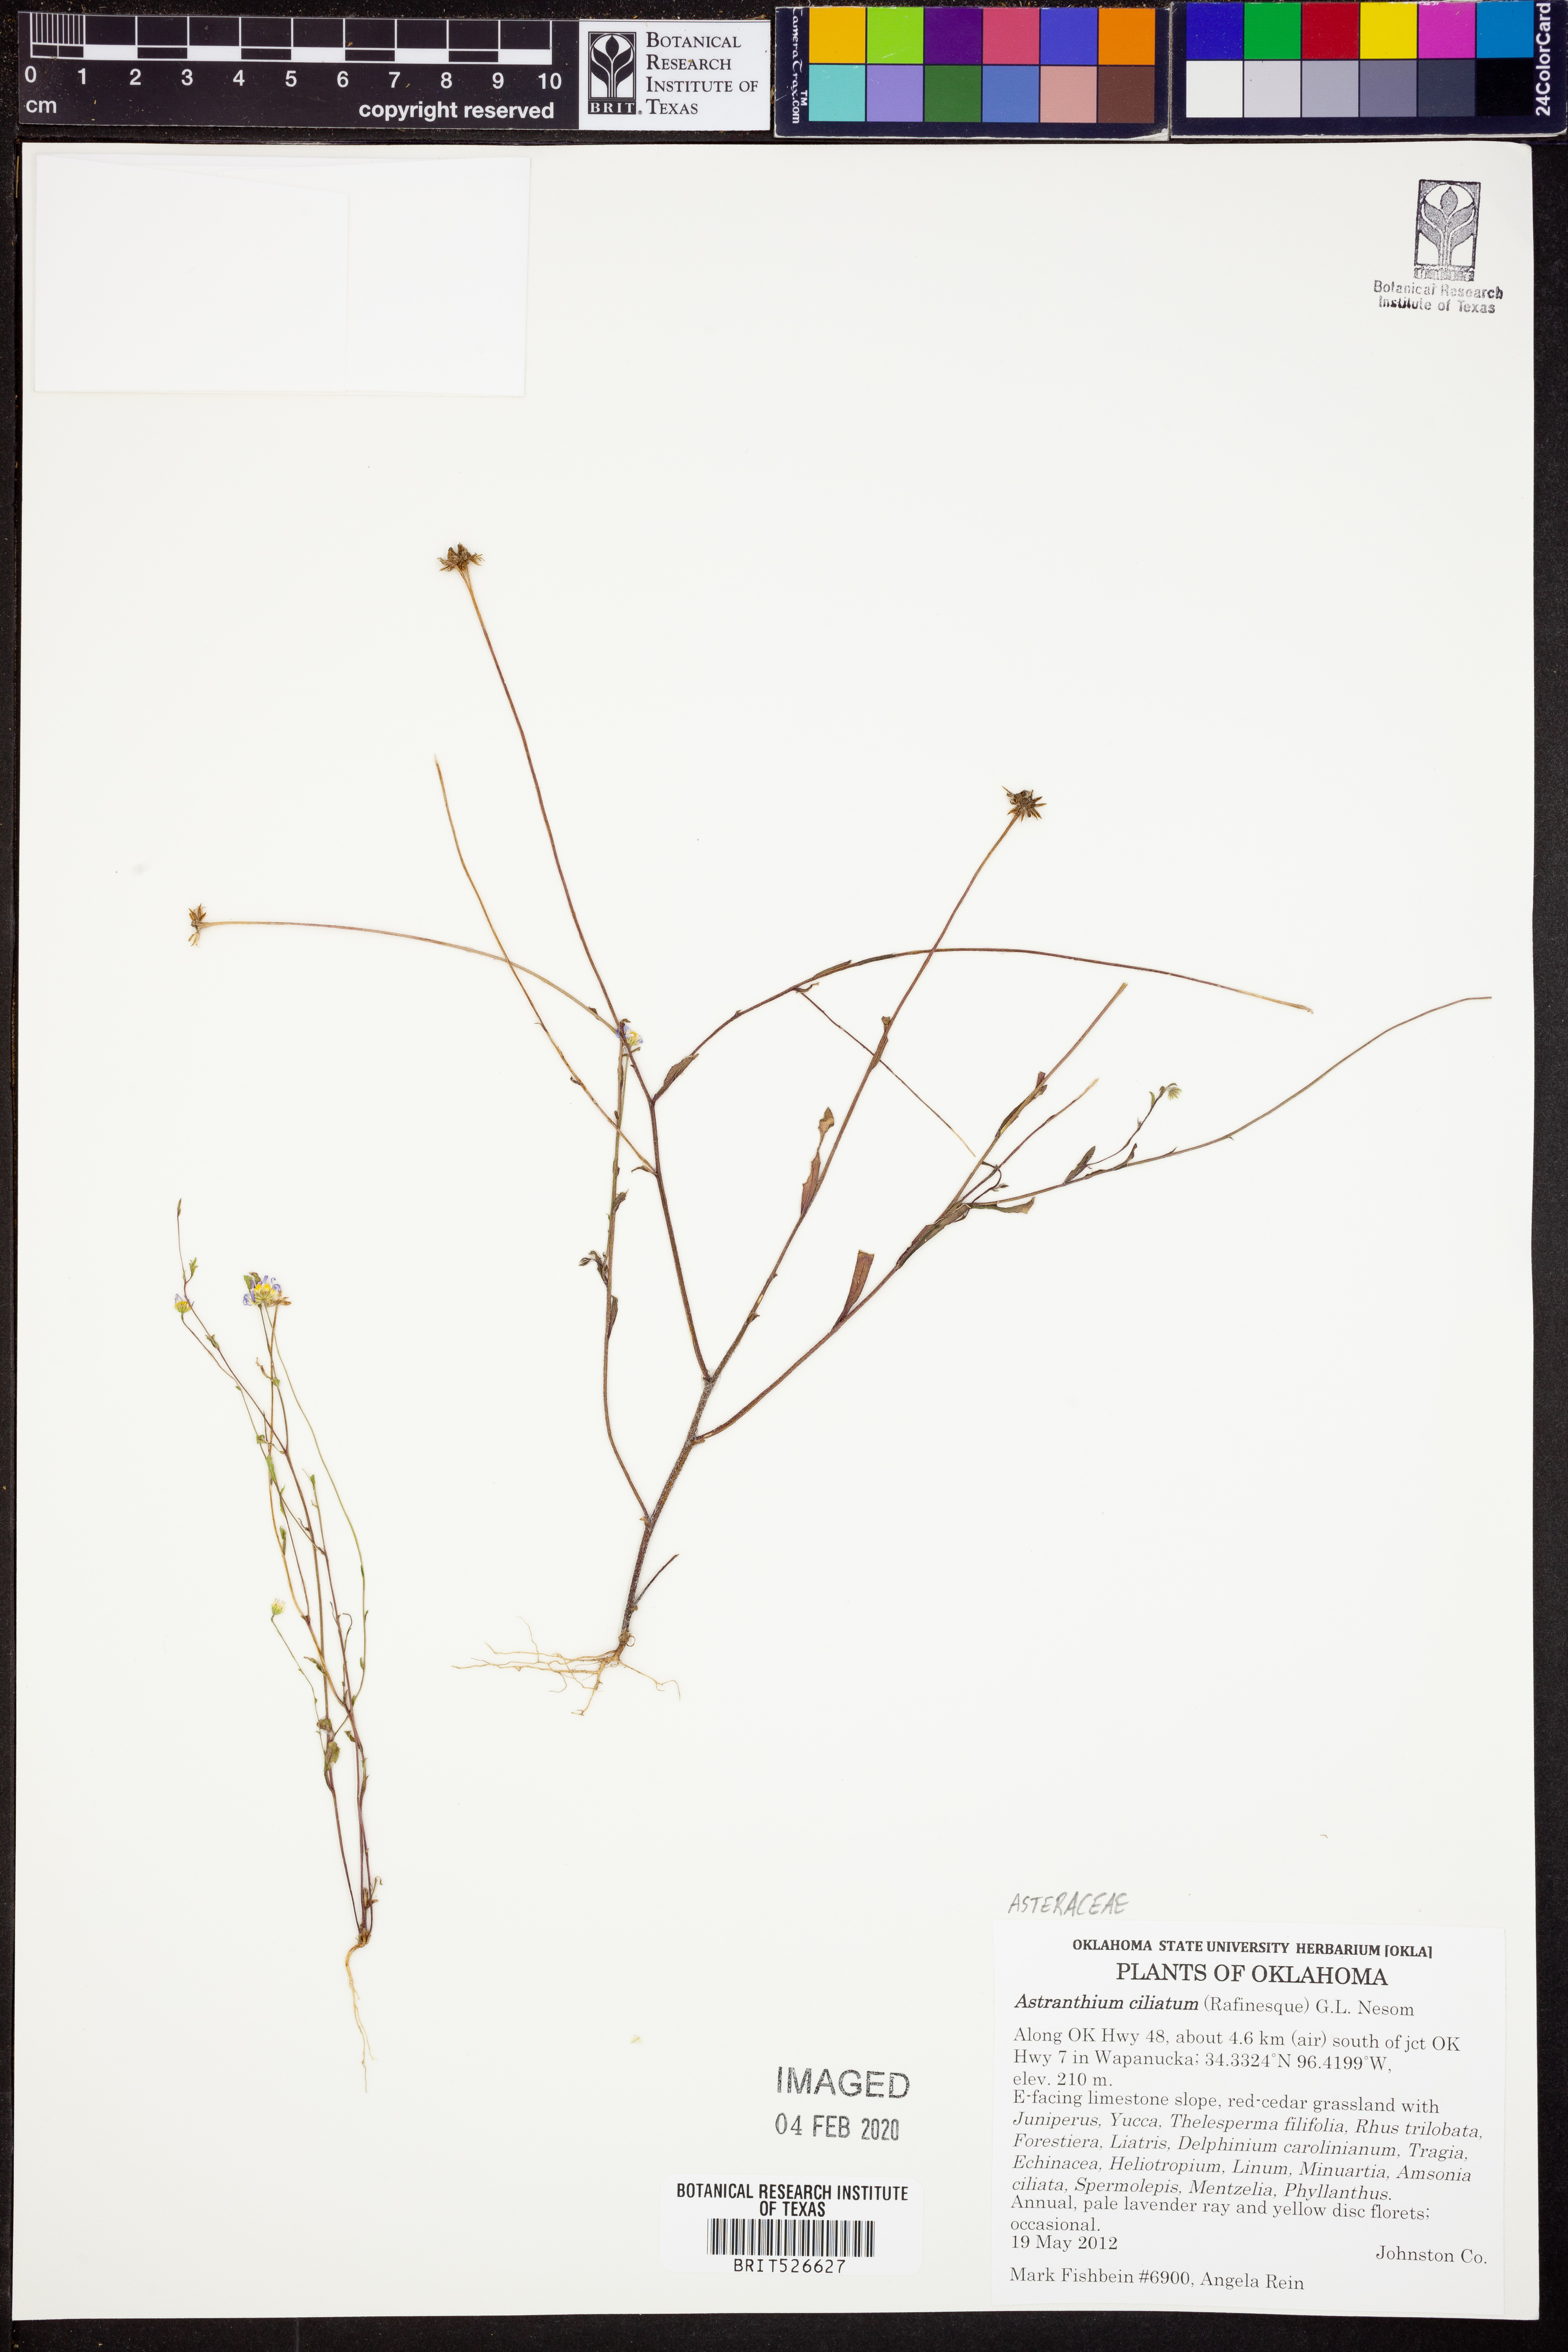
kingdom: Plantae
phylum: Tracheophyta
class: Magnoliopsida
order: Asterales
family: Asteraceae
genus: Astranthium
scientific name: Astranthium ciliatum
